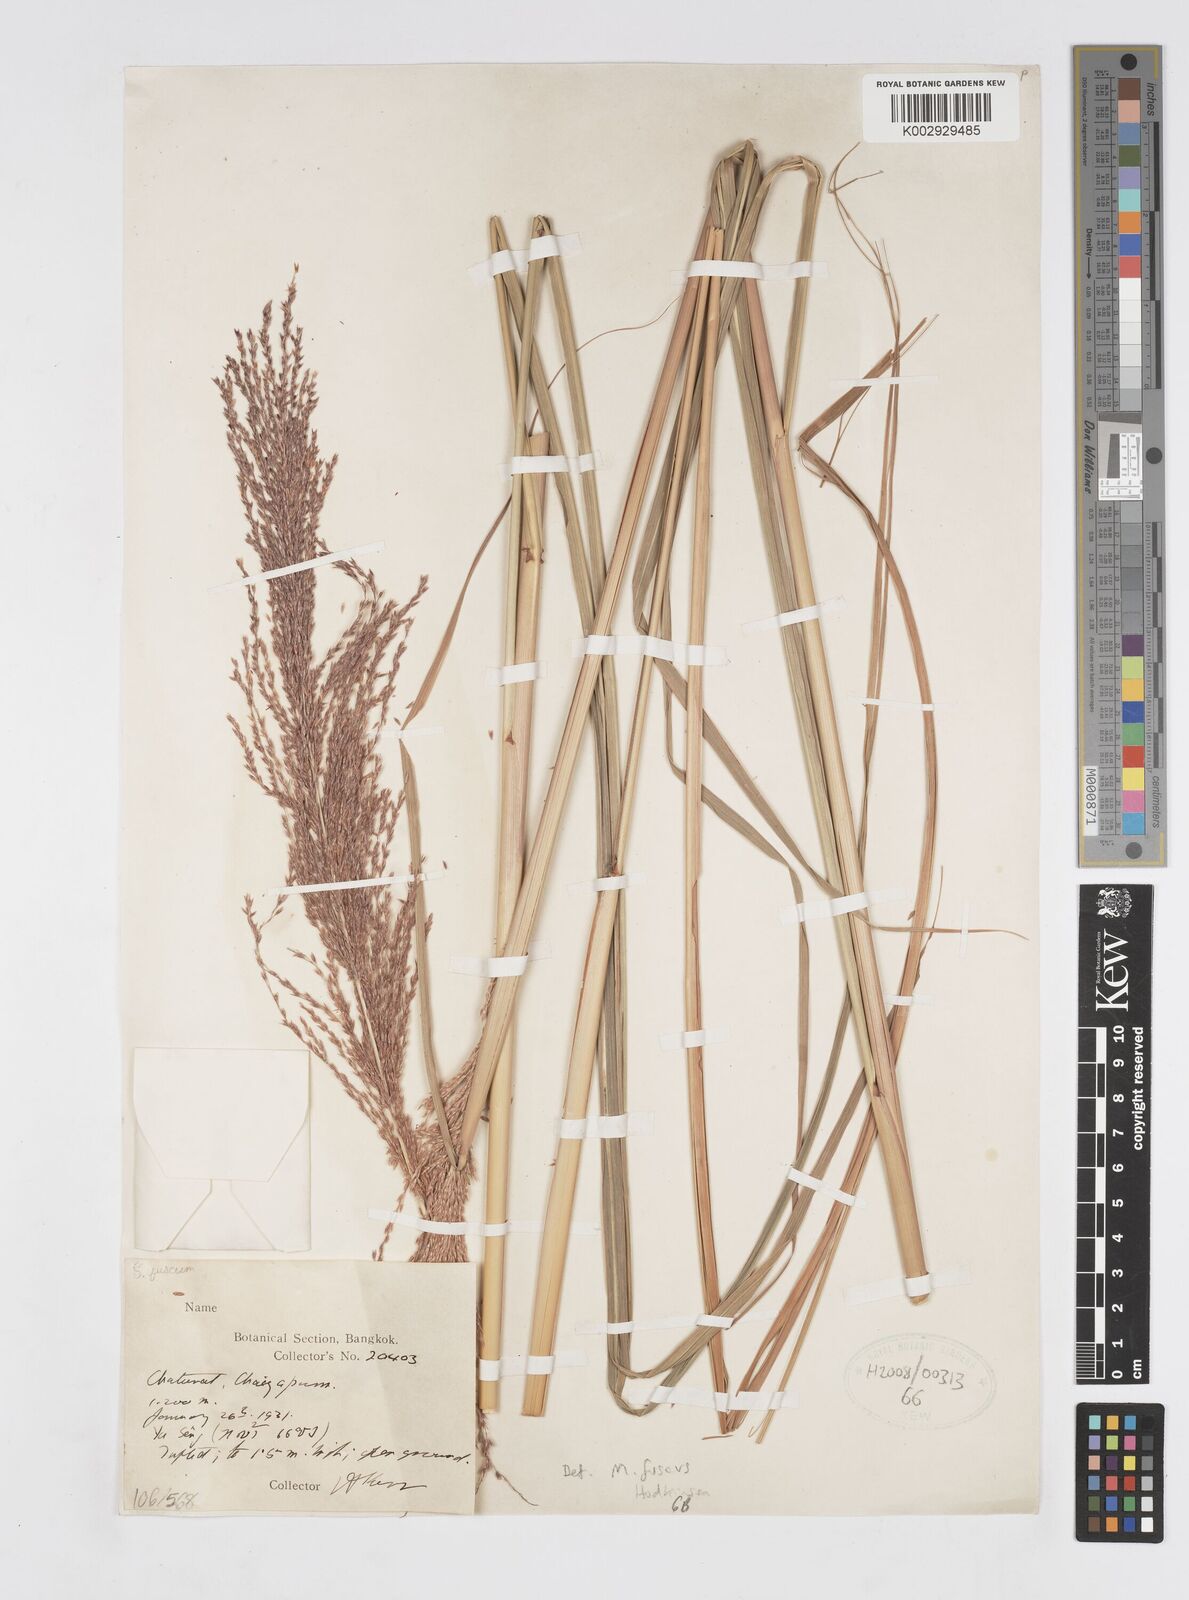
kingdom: Plantae
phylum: Tracheophyta
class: Liliopsida
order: Poales
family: Poaceae
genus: Miscanthus
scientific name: Miscanthus fuscus
